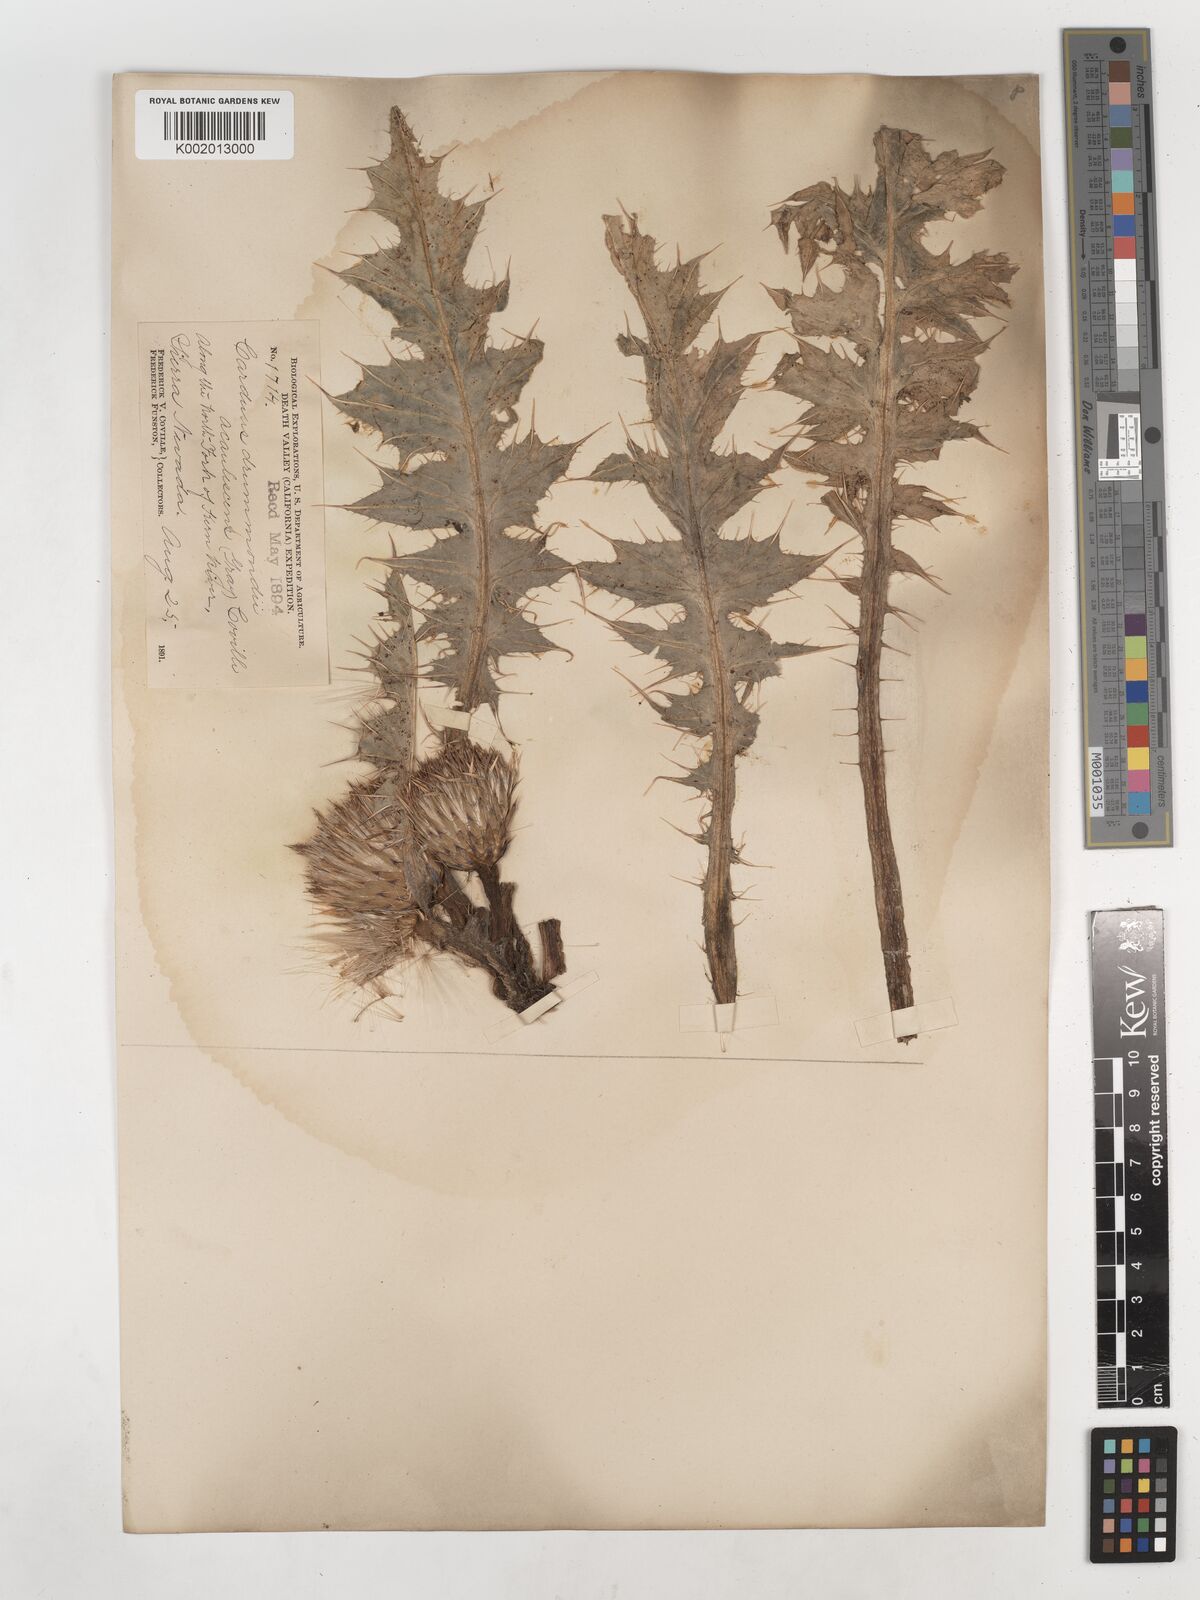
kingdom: Plantae
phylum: Tracheophyta
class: Magnoliopsida
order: Asterales
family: Asteraceae
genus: Cirsium
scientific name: Cirsium drummondii
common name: Drummond's thistle
